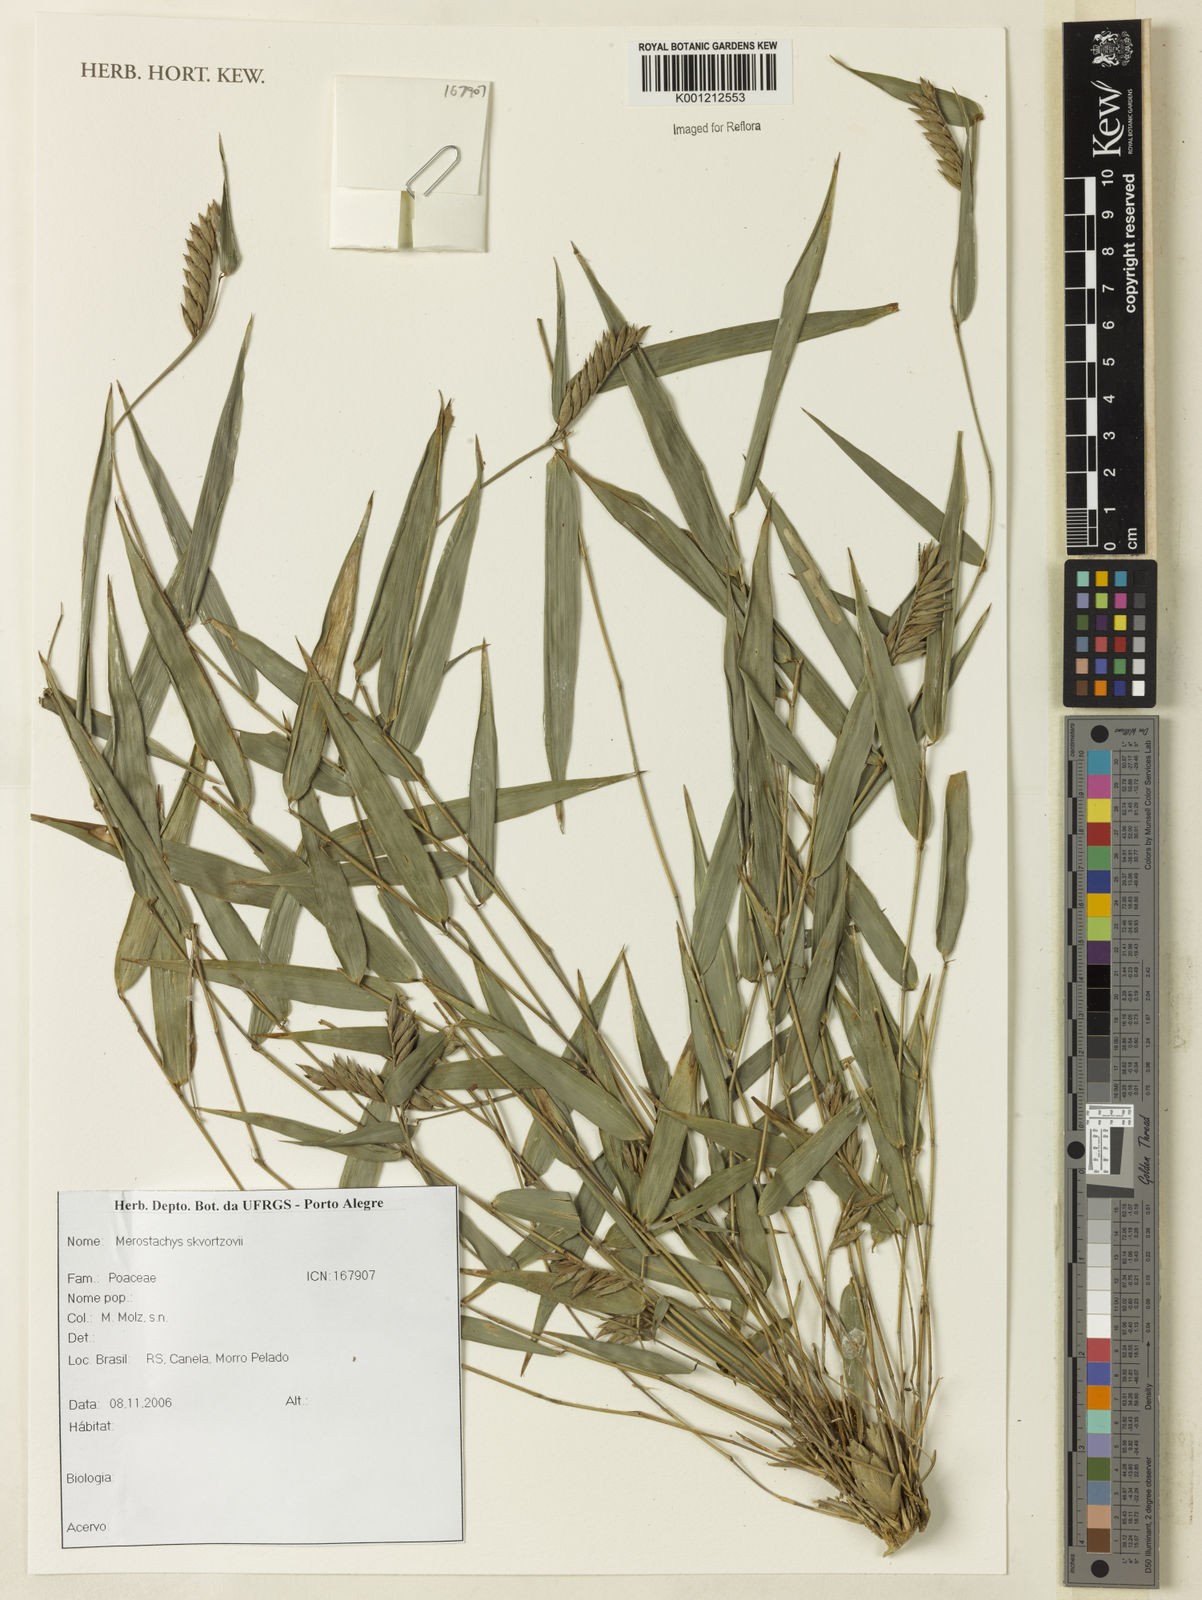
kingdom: Plantae
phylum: Tracheophyta
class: Liliopsida
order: Poales
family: Poaceae
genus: Merostachys
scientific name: Merostachys skvortzovii
